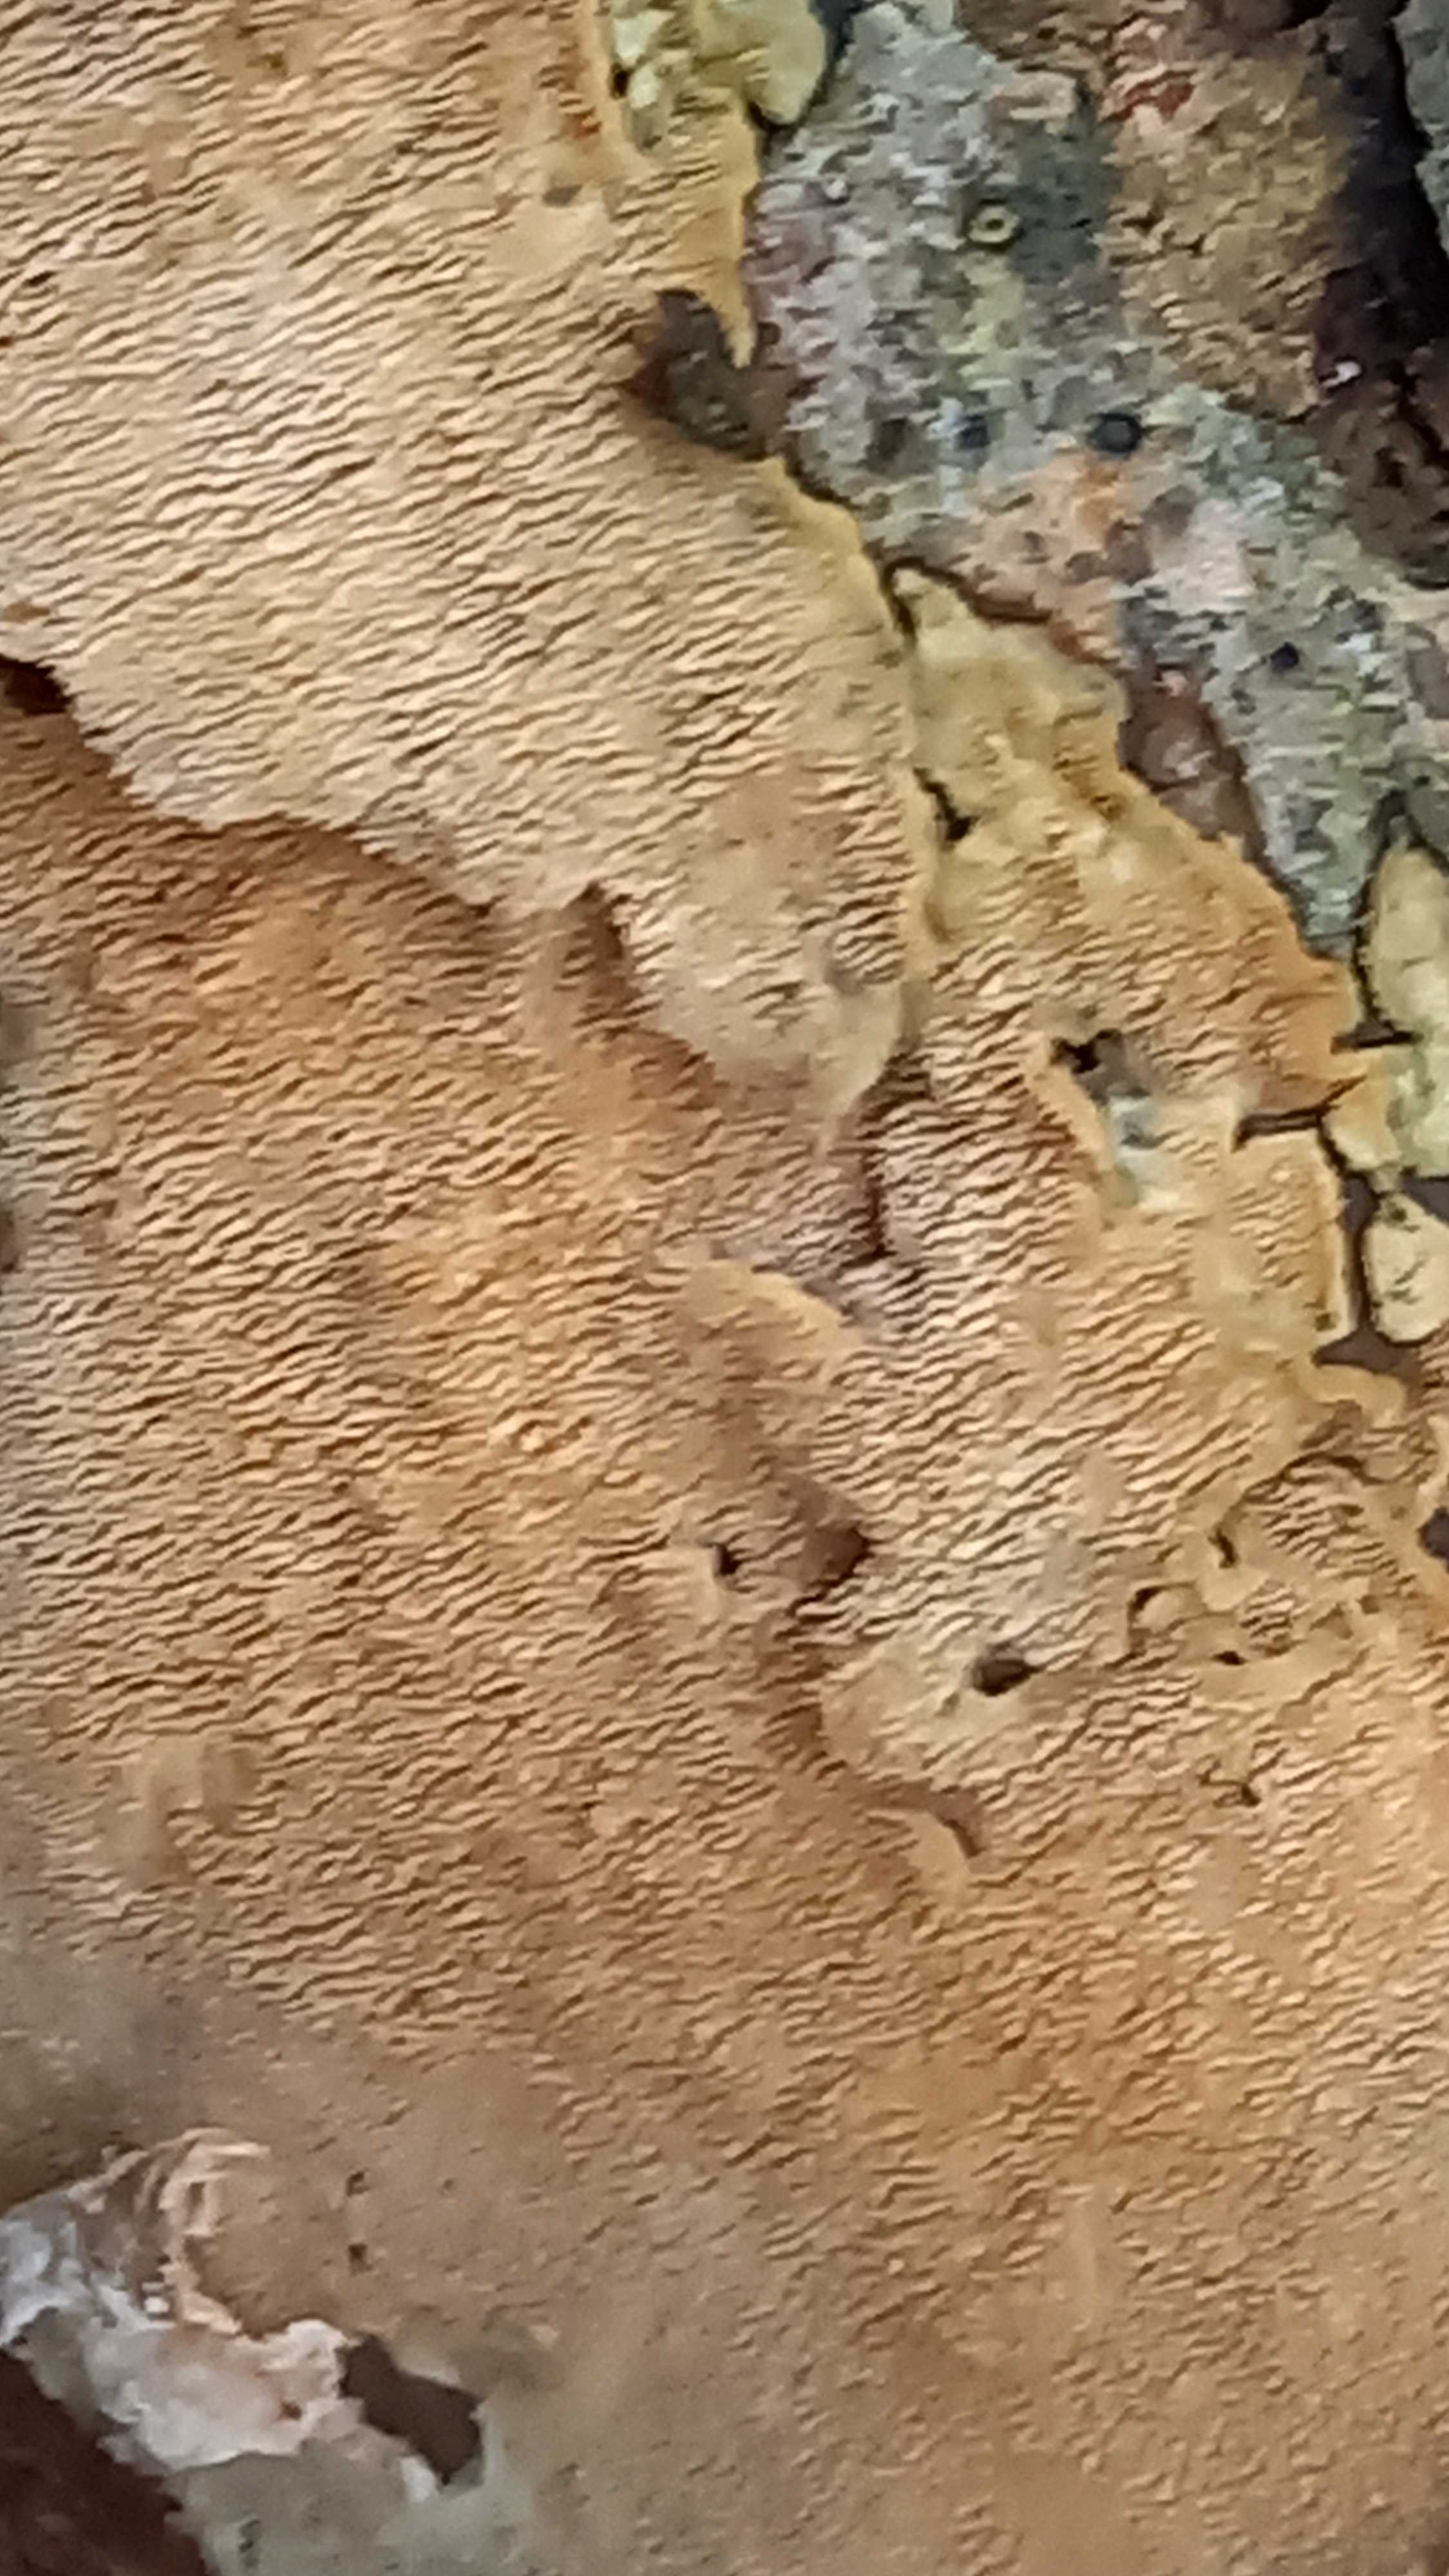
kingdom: Fungi
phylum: Basidiomycota
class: Agaricomycetes
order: Polyporales
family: Steccherinaceae
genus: Steccherinum
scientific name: Steccherinum ochraceum
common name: almindelig skønpig
